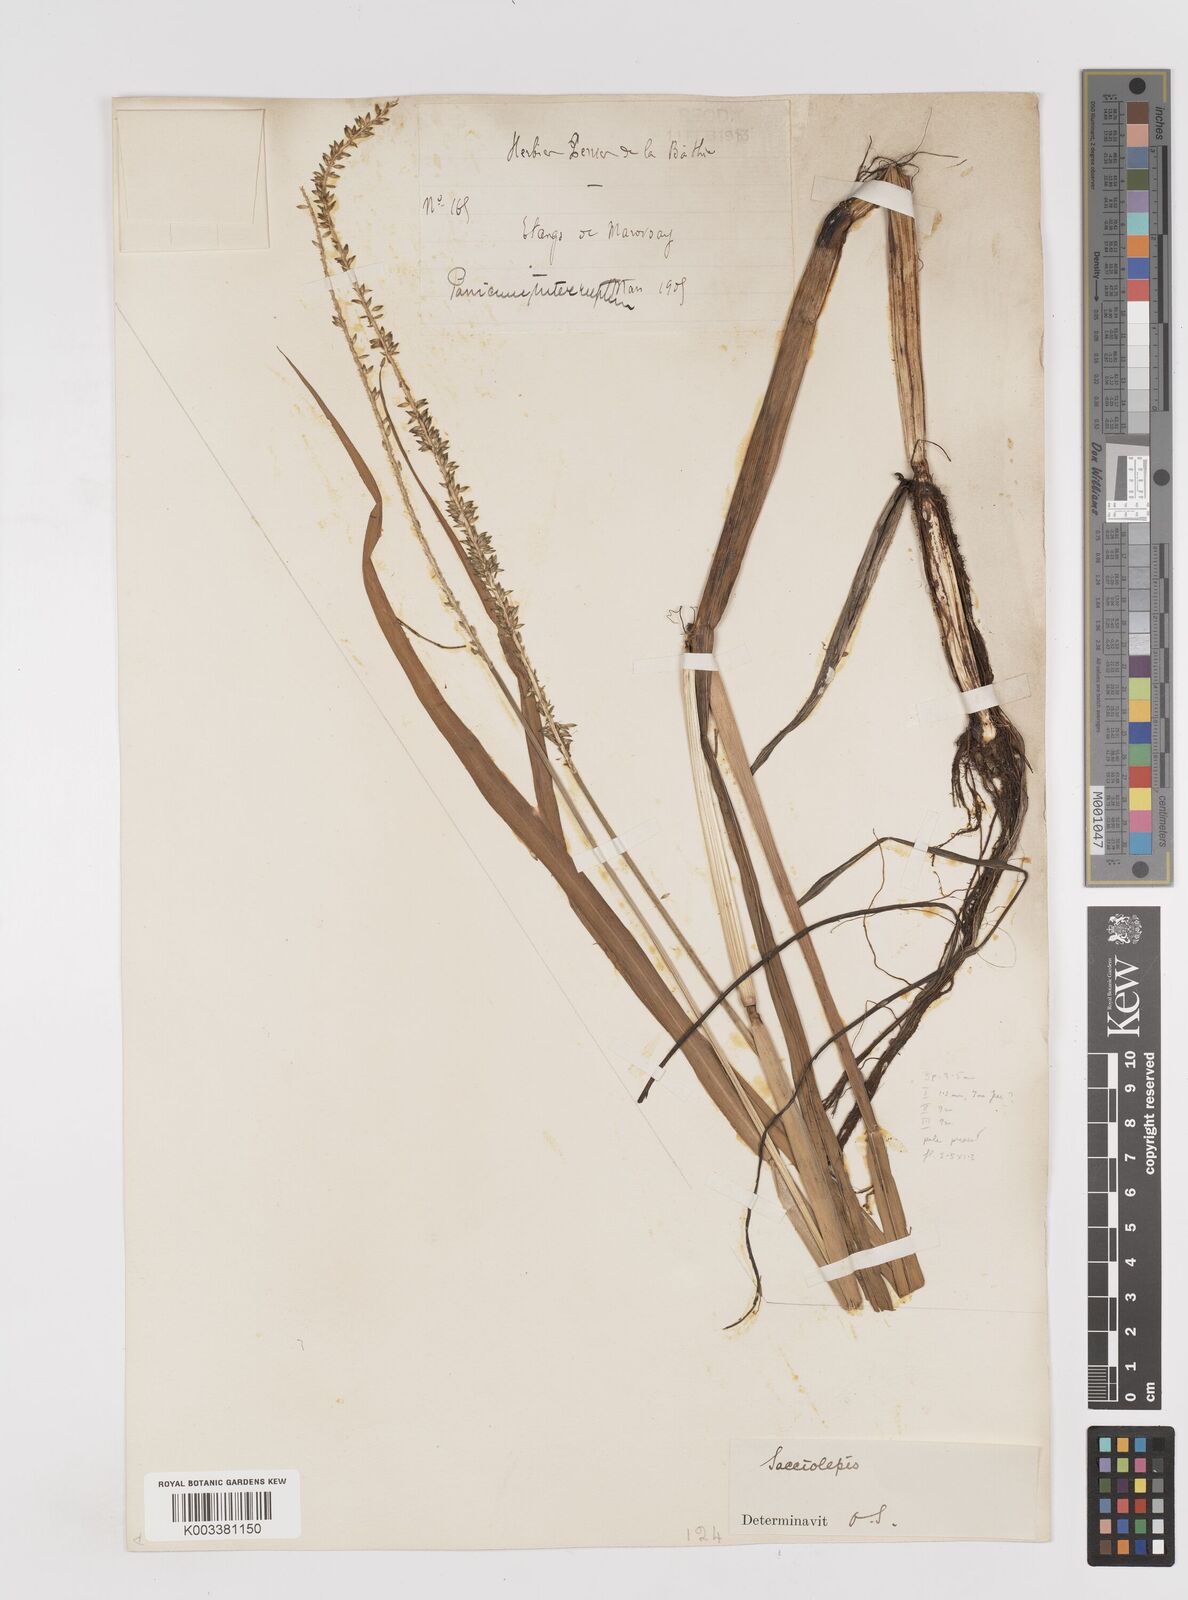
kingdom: Plantae
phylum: Tracheophyta
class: Liliopsida
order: Poales
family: Poaceae
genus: Sacciolepis
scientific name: Sacciolepis africana
